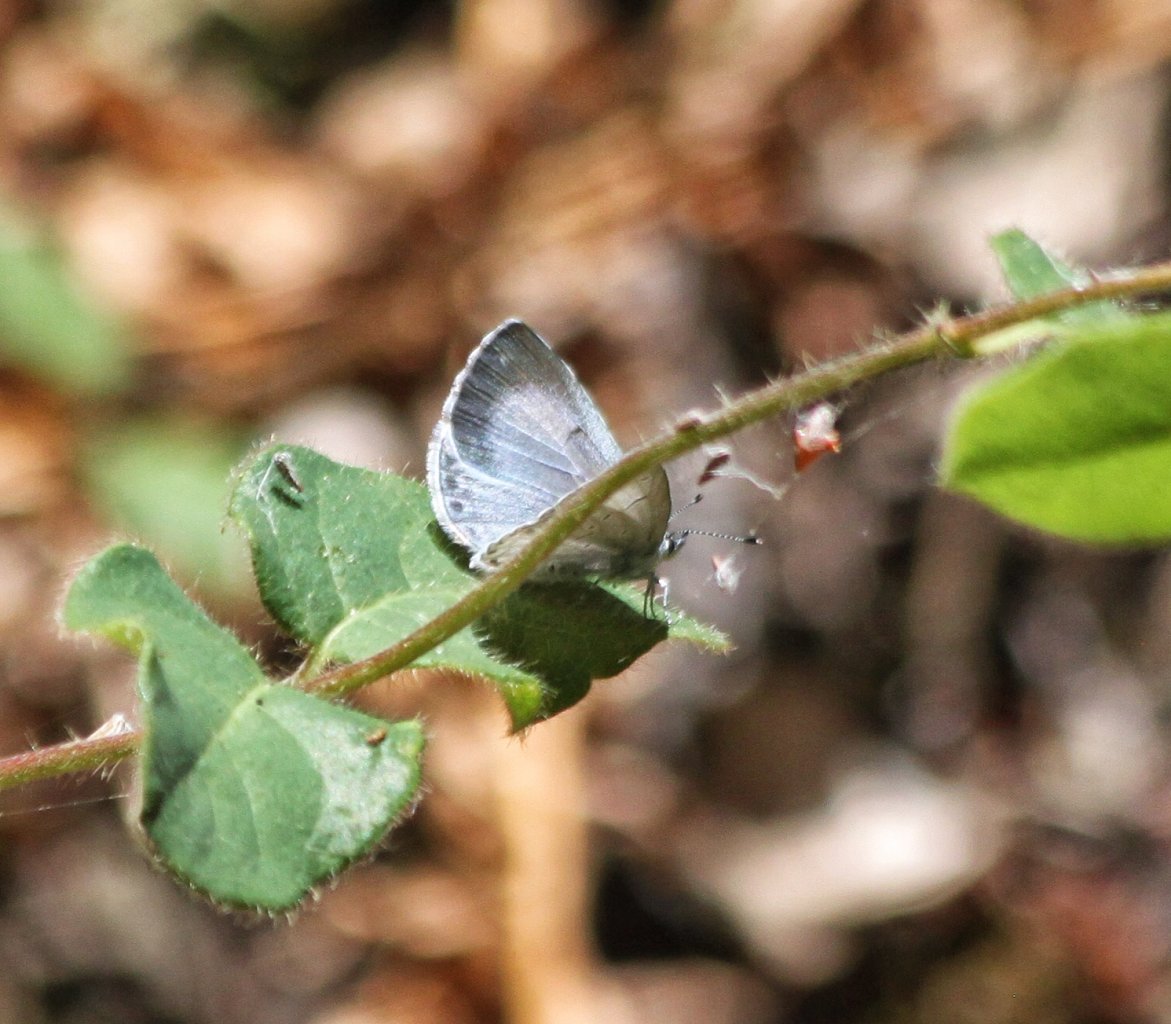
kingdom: Animalia
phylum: Arthropoda
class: Insecta
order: Lepidoptera
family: Lycaenidae
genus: Celastrina
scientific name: Celastrina ladon
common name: Echo Azure
